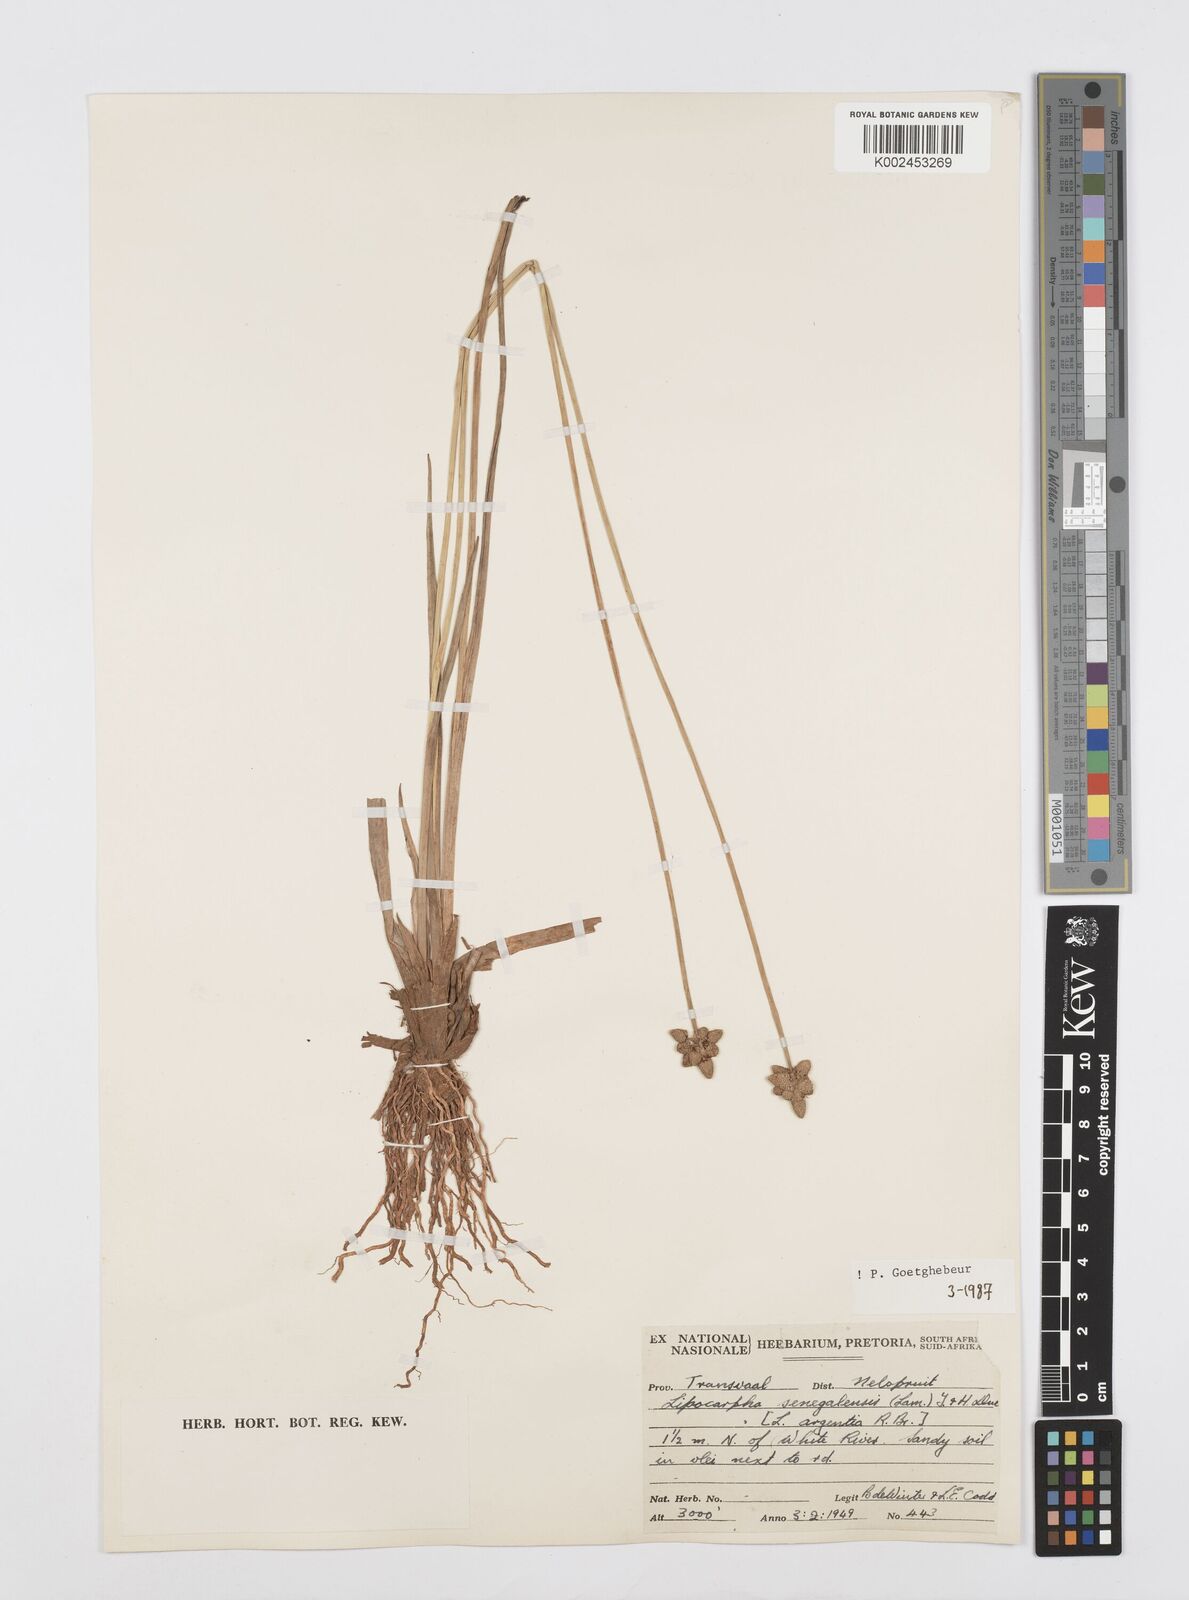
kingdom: Plantae
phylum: Tracheophyta
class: Liliopsida
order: Poales
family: Cyperaceae
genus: Cyperus
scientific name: Cyperus albescens
